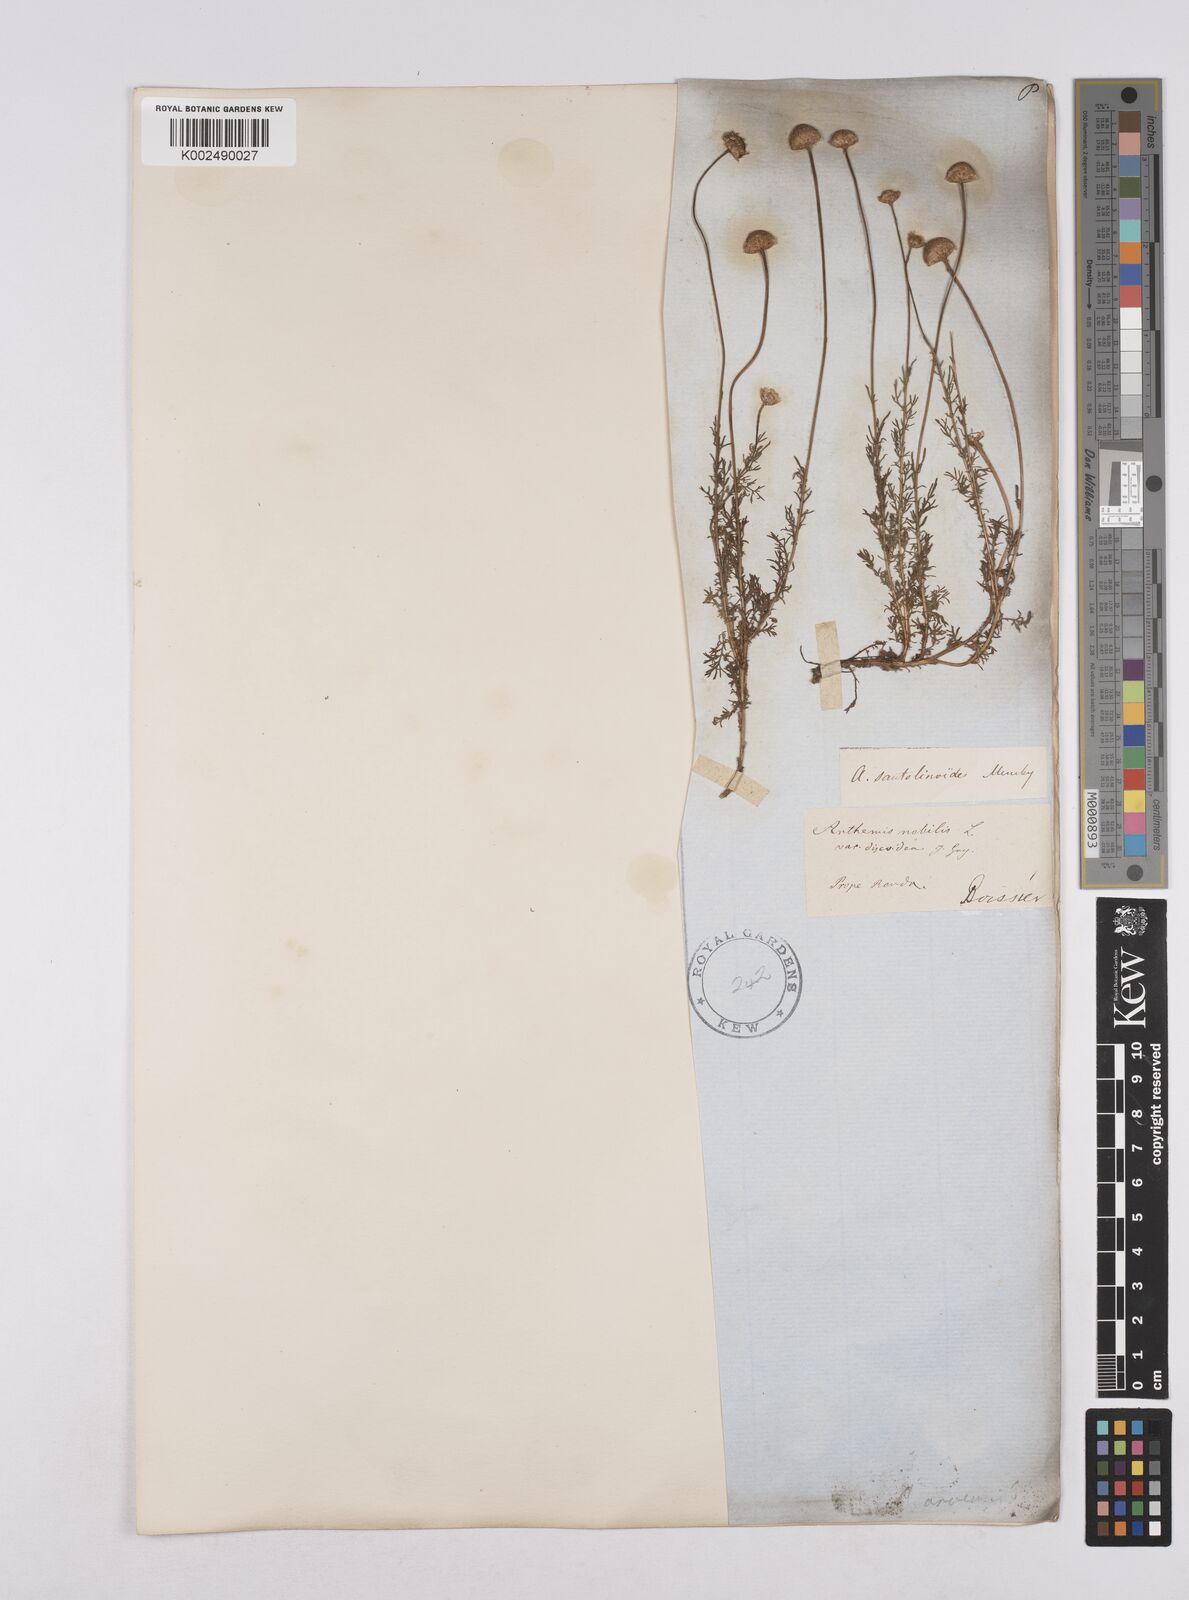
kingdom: Plantae
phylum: Tracheophyta
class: Magnoliopsida
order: Asterales
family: Asteraceae
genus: Matricaria
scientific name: Matricaria aurea
